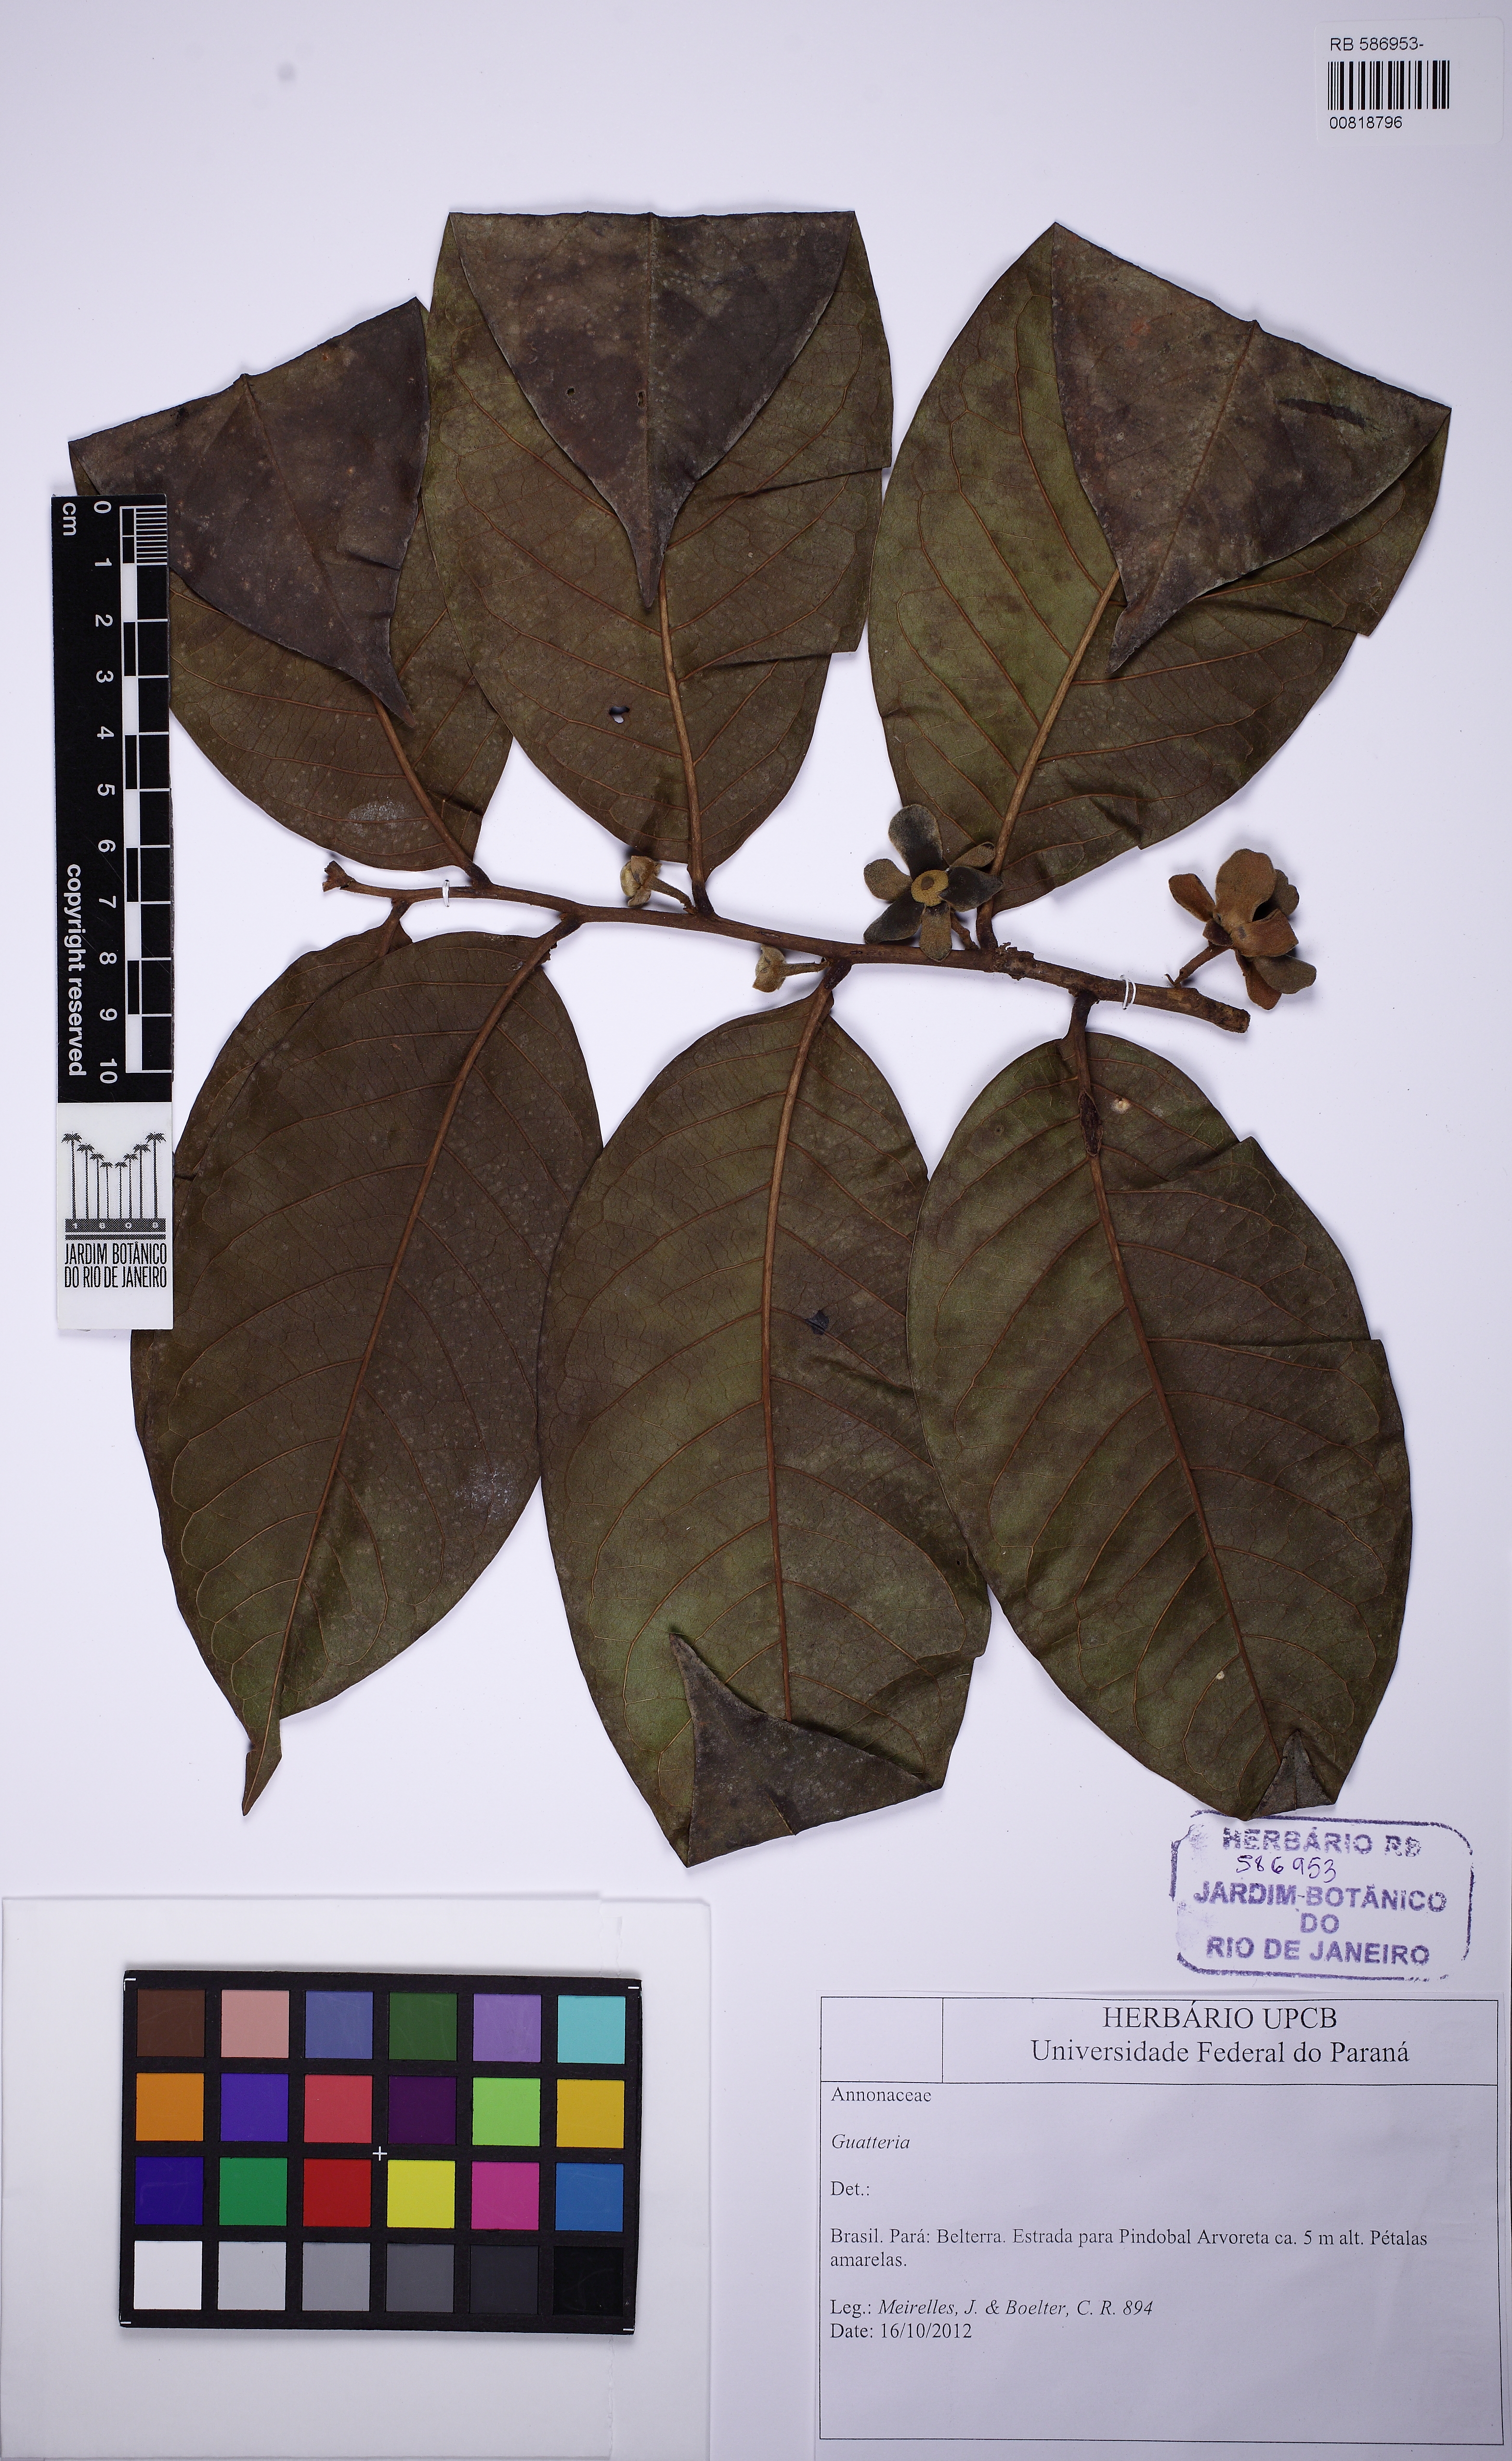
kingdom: Plantae
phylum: Tracheophyta
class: Magnoliopsida
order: Magnoliales
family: Annonaceae
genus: Guatteria
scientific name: Guatteria
